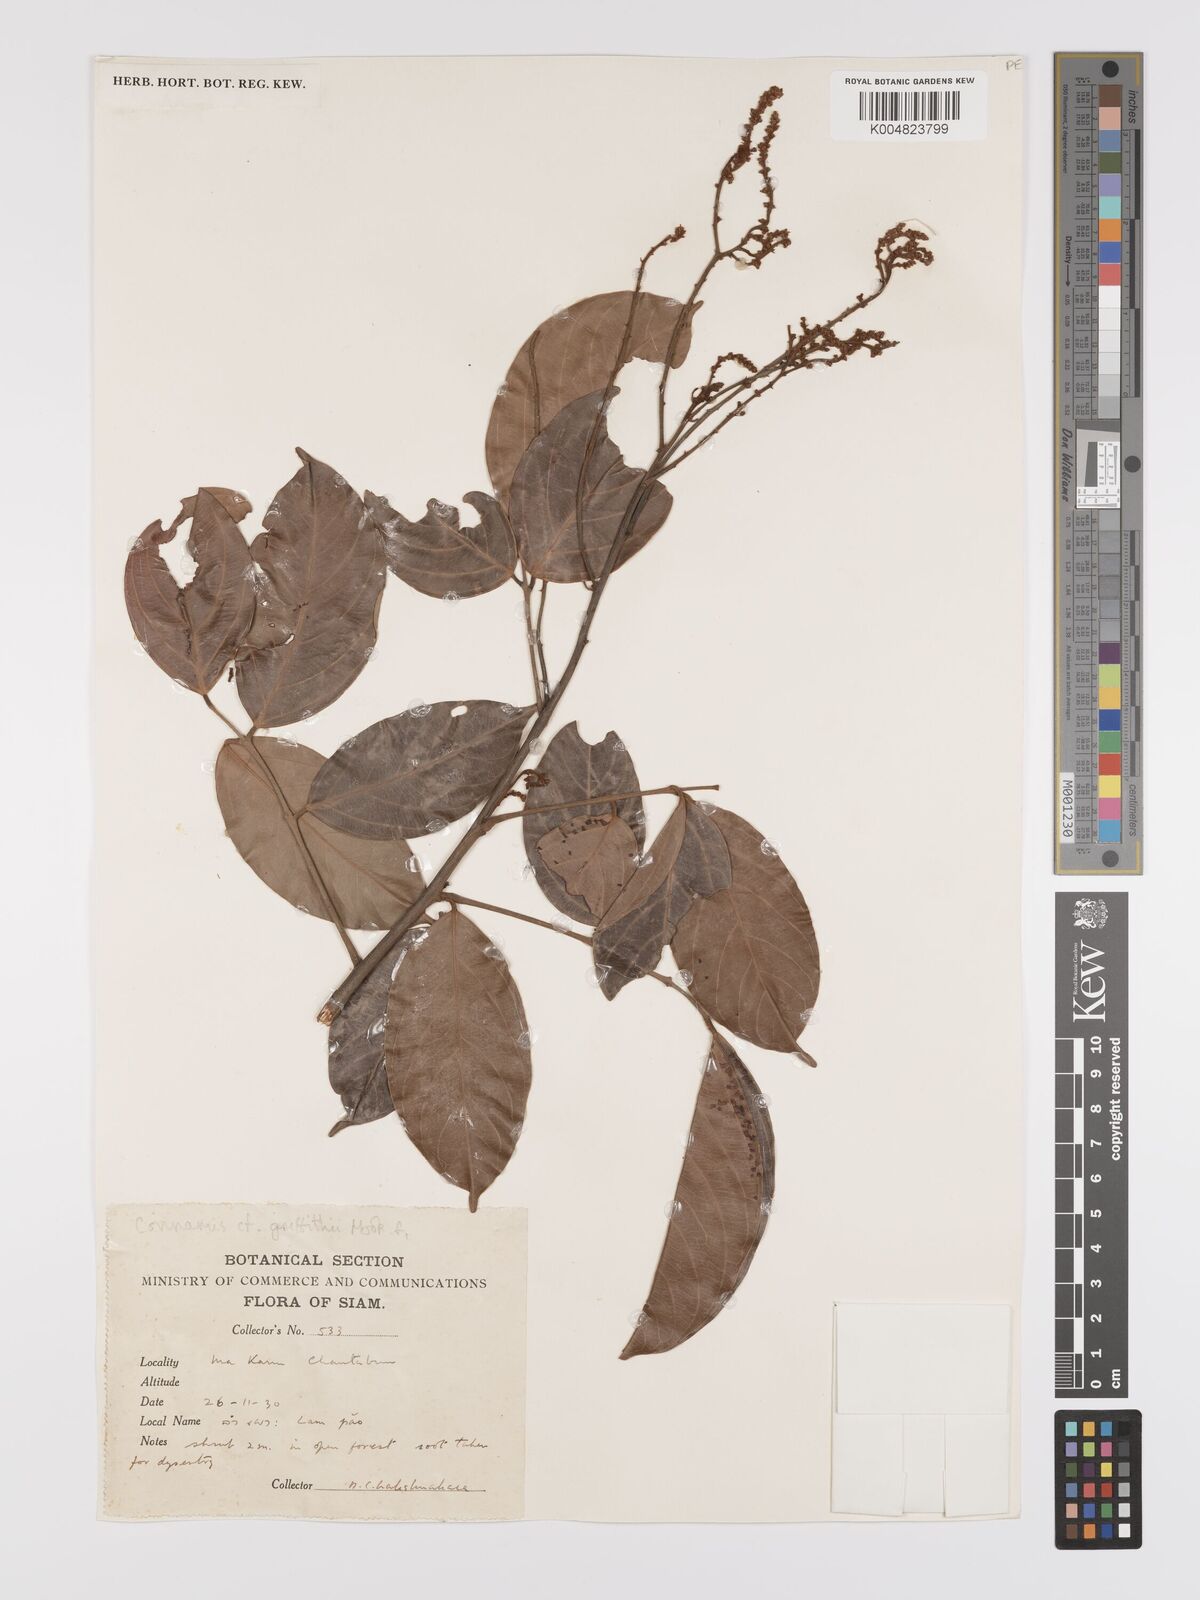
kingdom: Plantae
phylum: Tracheophyta
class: Magnoliopsida
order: Oxalidales
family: Connaraceae
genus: Connarus
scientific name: Connarus semidecandrus
